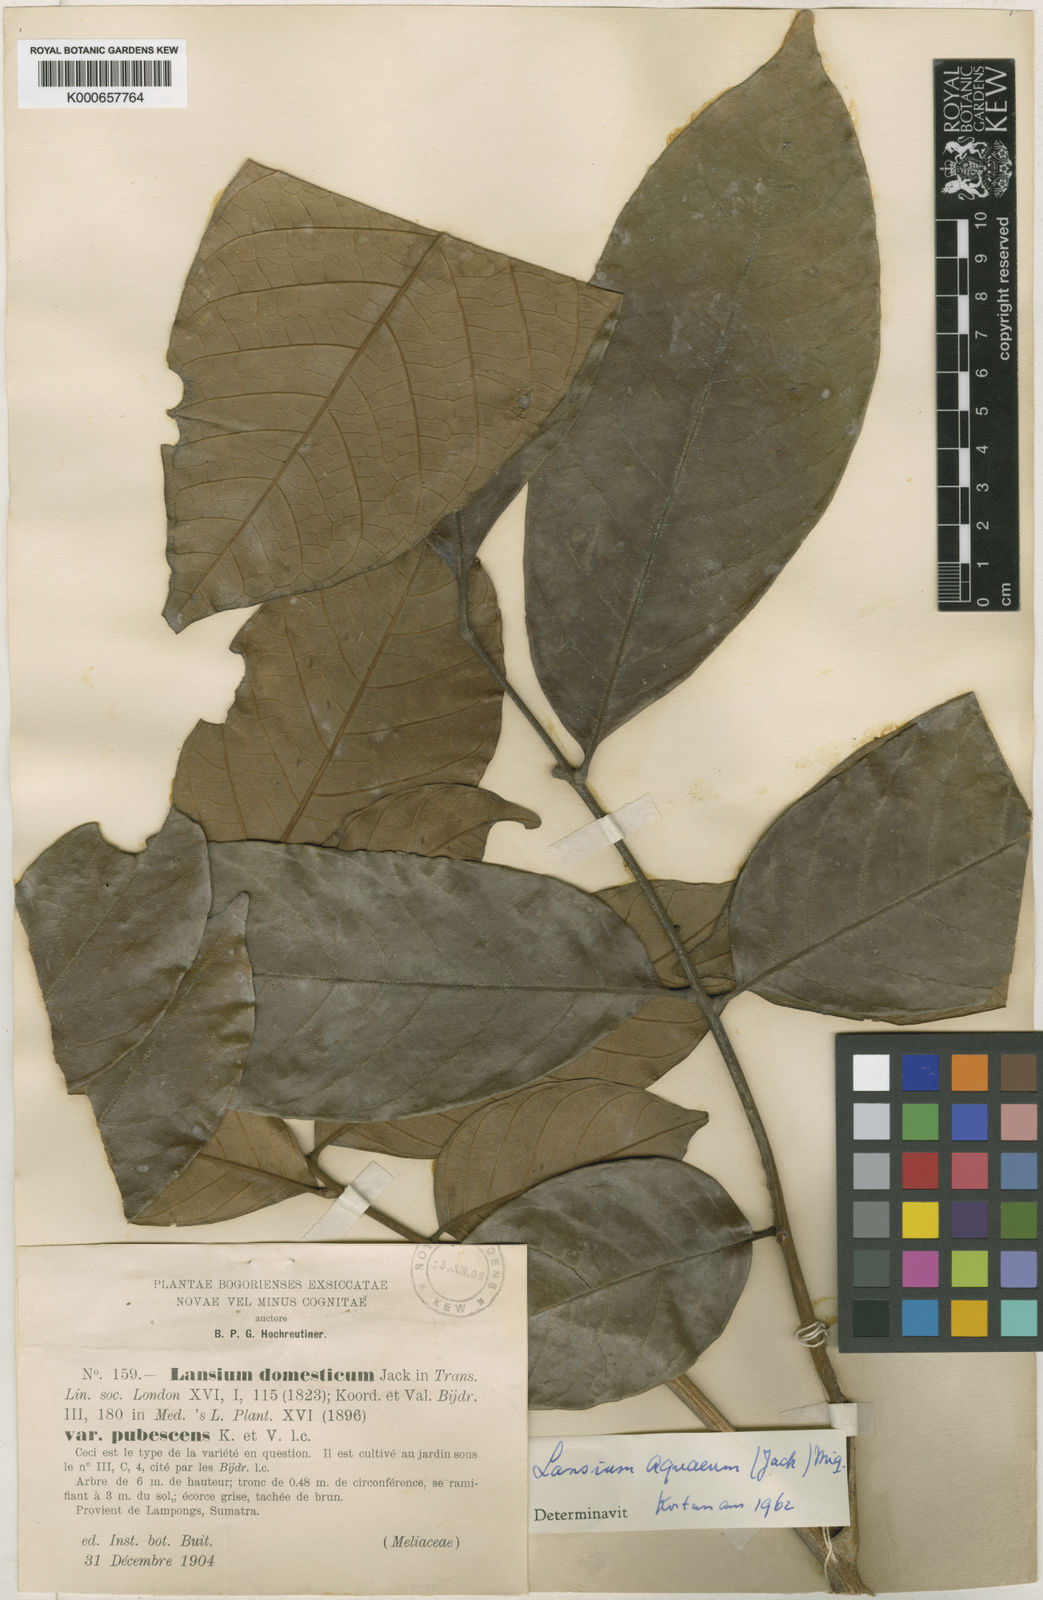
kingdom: Plantae
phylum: Tracheophyta
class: Magnoliopsida
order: Sapindales
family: Meliaceae
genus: Lansium
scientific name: Lansium
